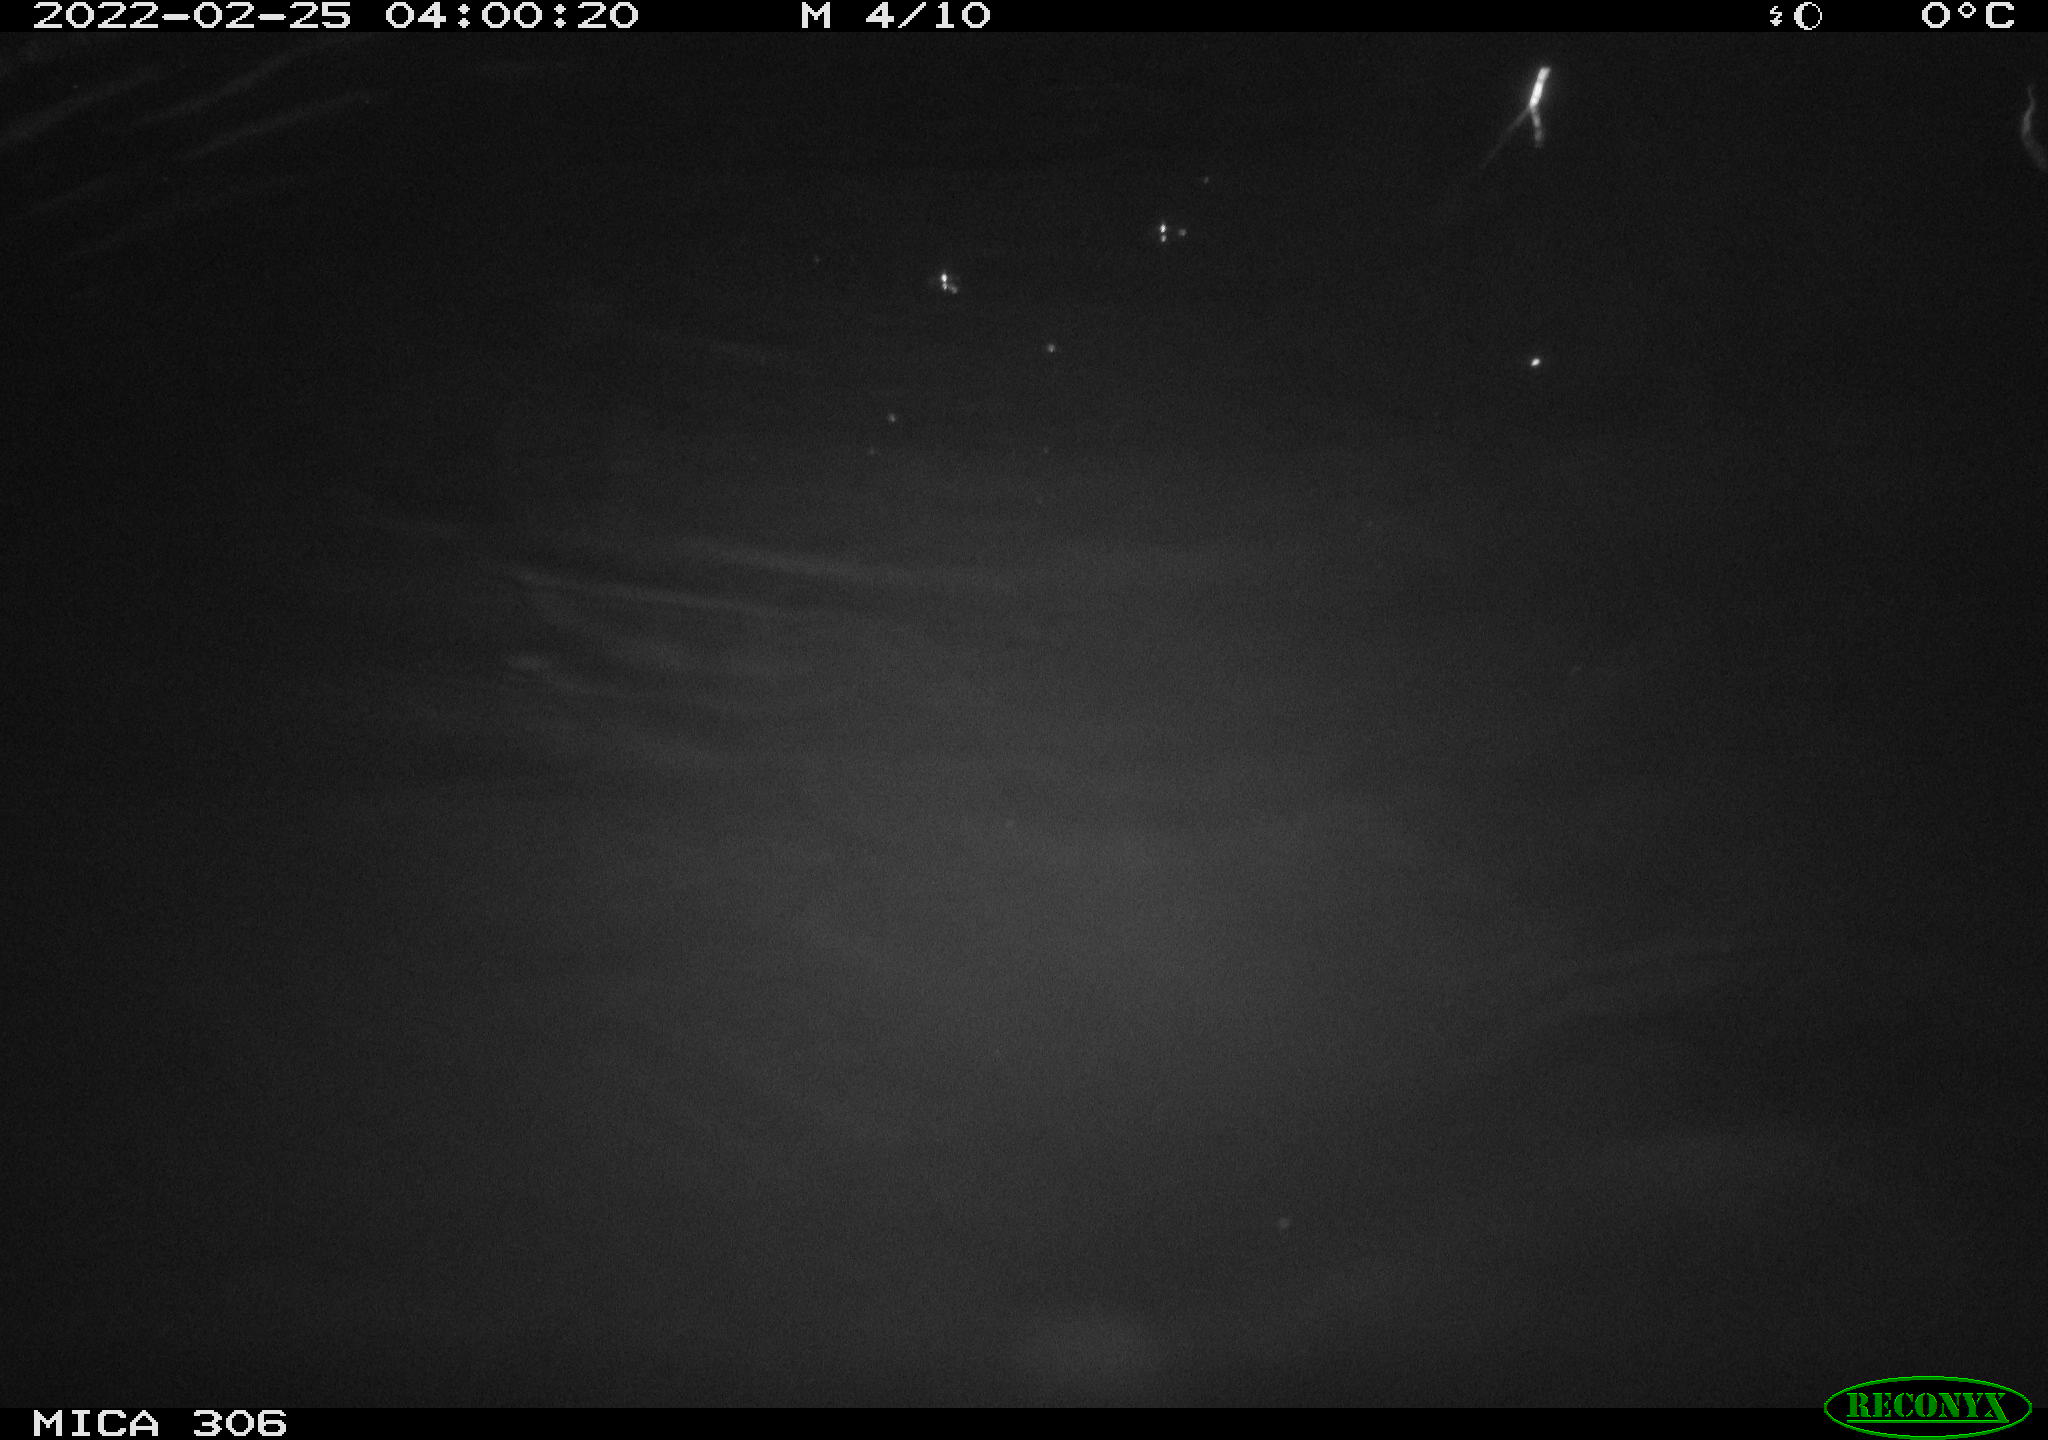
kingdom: Animalia
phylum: Chordata
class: Mammalia
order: Rodentia
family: Cricetidae
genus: Ondatra
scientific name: Ondatra zibethicus
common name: Muskrat
